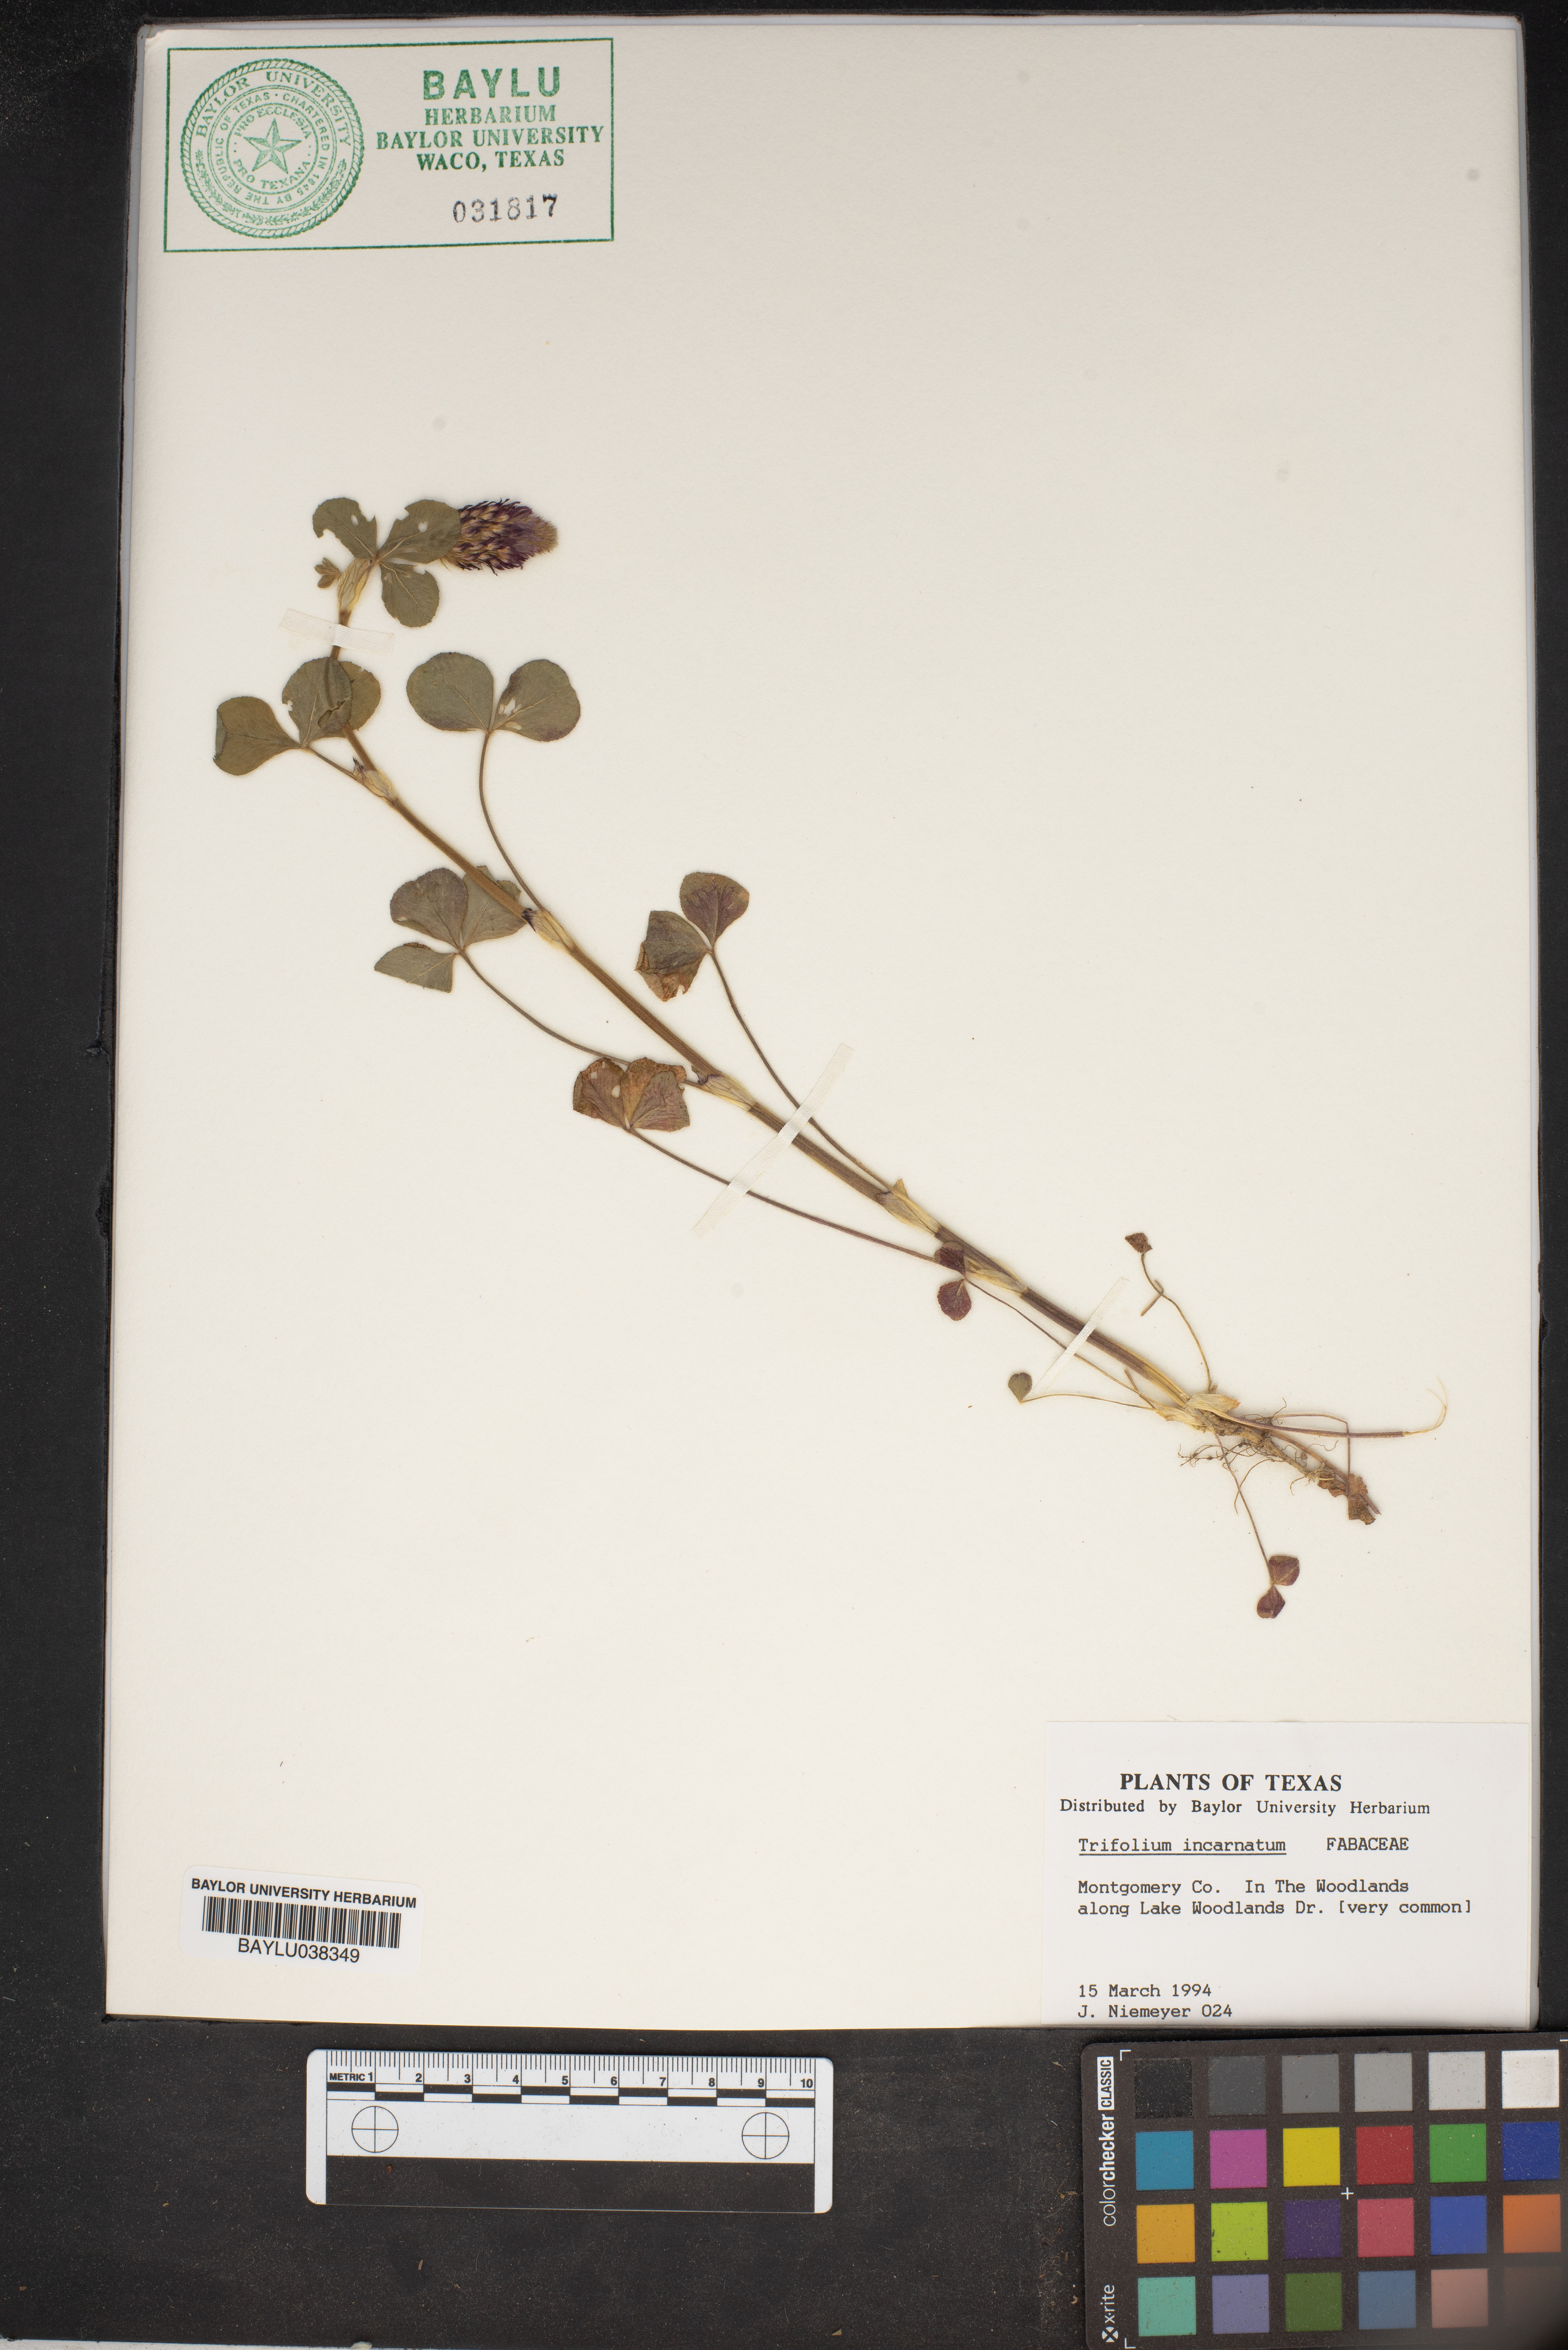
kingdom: Plantae
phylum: Tracheophyta
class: Magnoliopsida
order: Fabales
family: Fabaceae
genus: Trifolium
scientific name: Trifolium incarnatum
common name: Crimson clover
